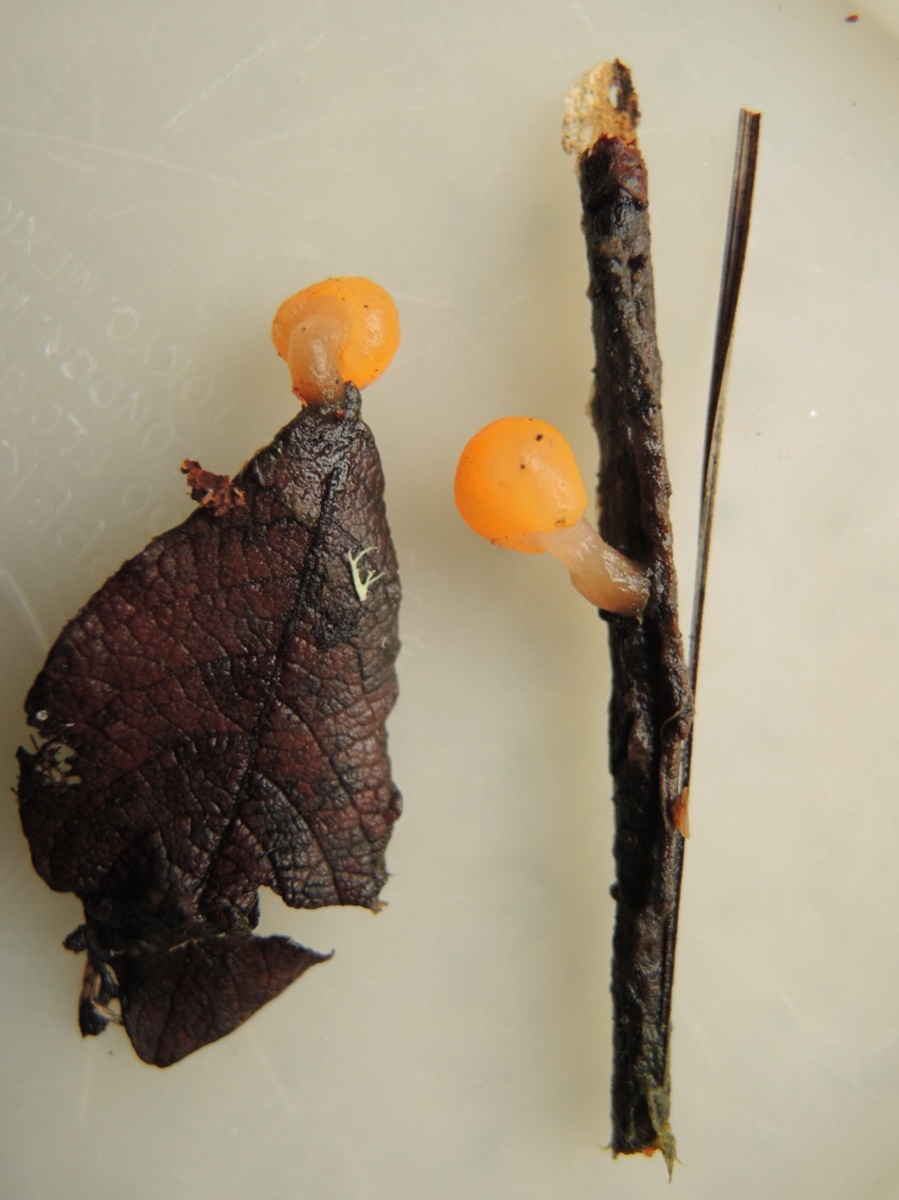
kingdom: Fungi
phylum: Ascomycota
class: Leotiomycetes
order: Helotiales
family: Cenangiaceae
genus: Mitrula
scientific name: Mitrula paludosa
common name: gul nøkketunge
